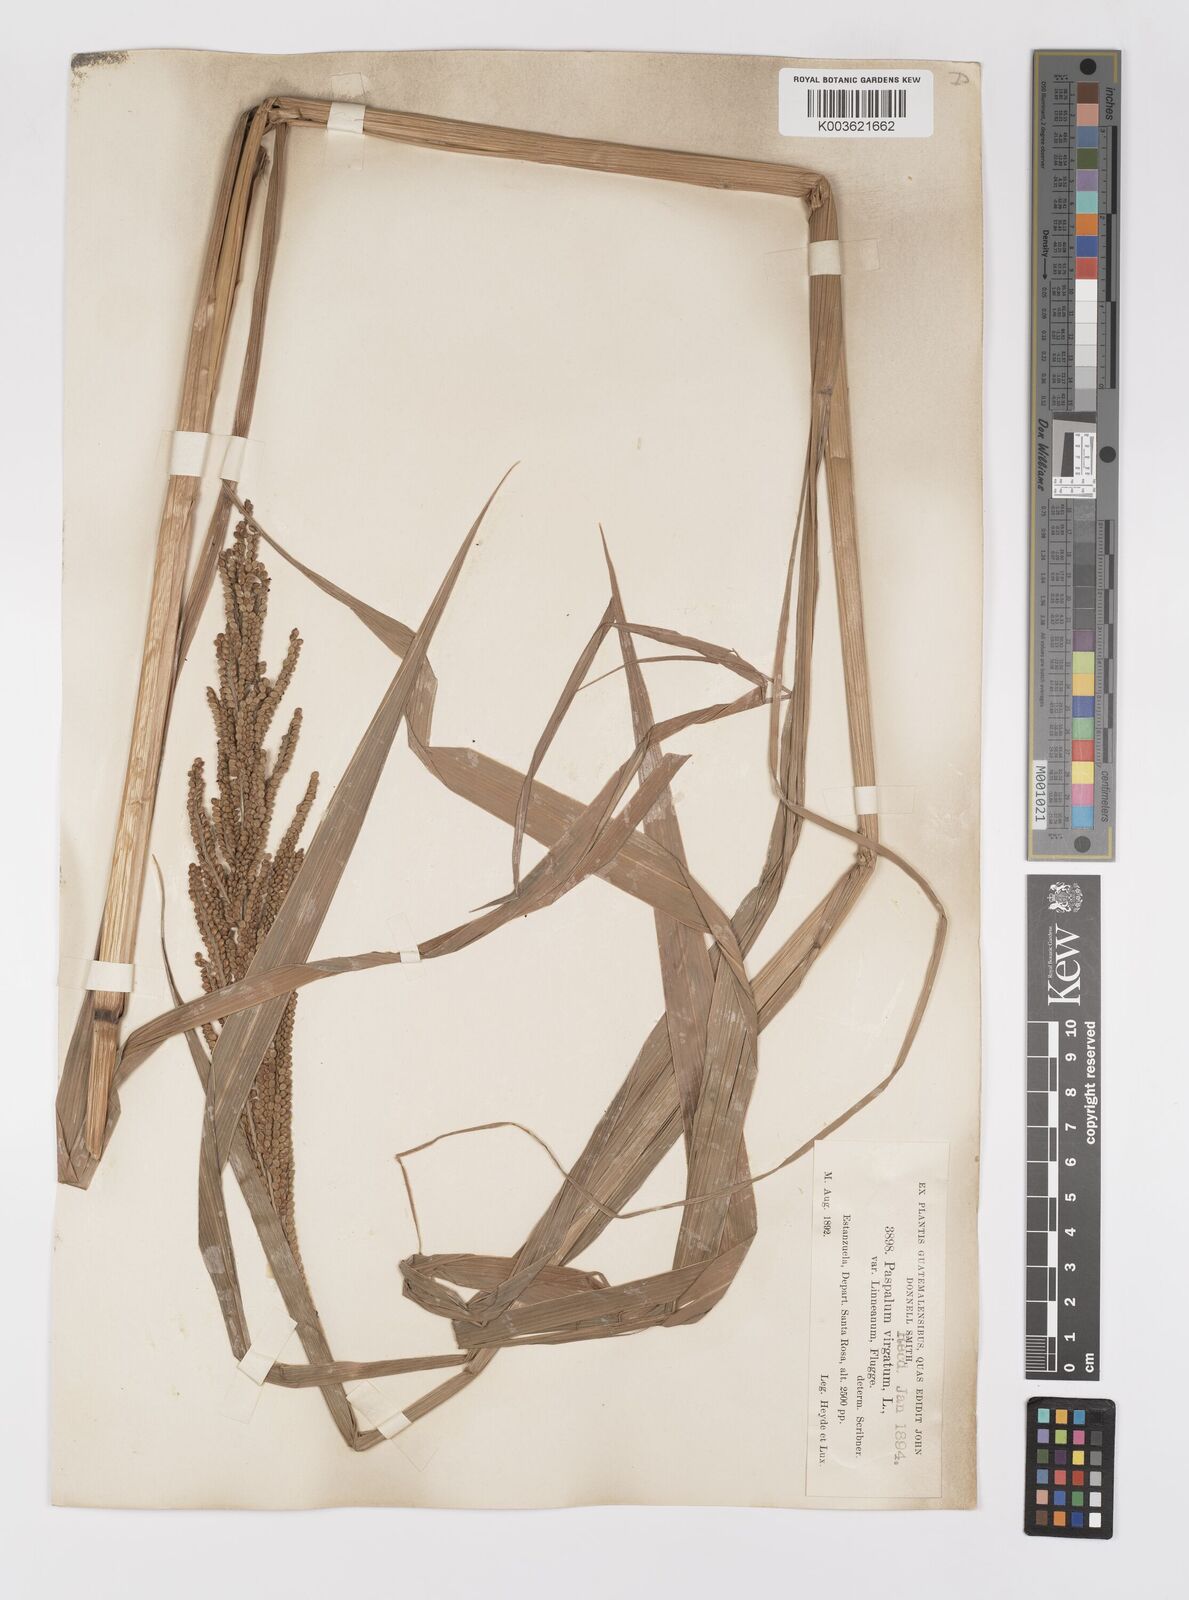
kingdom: Plantae
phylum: Tracheophyta
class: Liliopsida
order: Poales
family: Poaceae
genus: Paspalum
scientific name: Paspalum virgatum
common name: Talquezal
